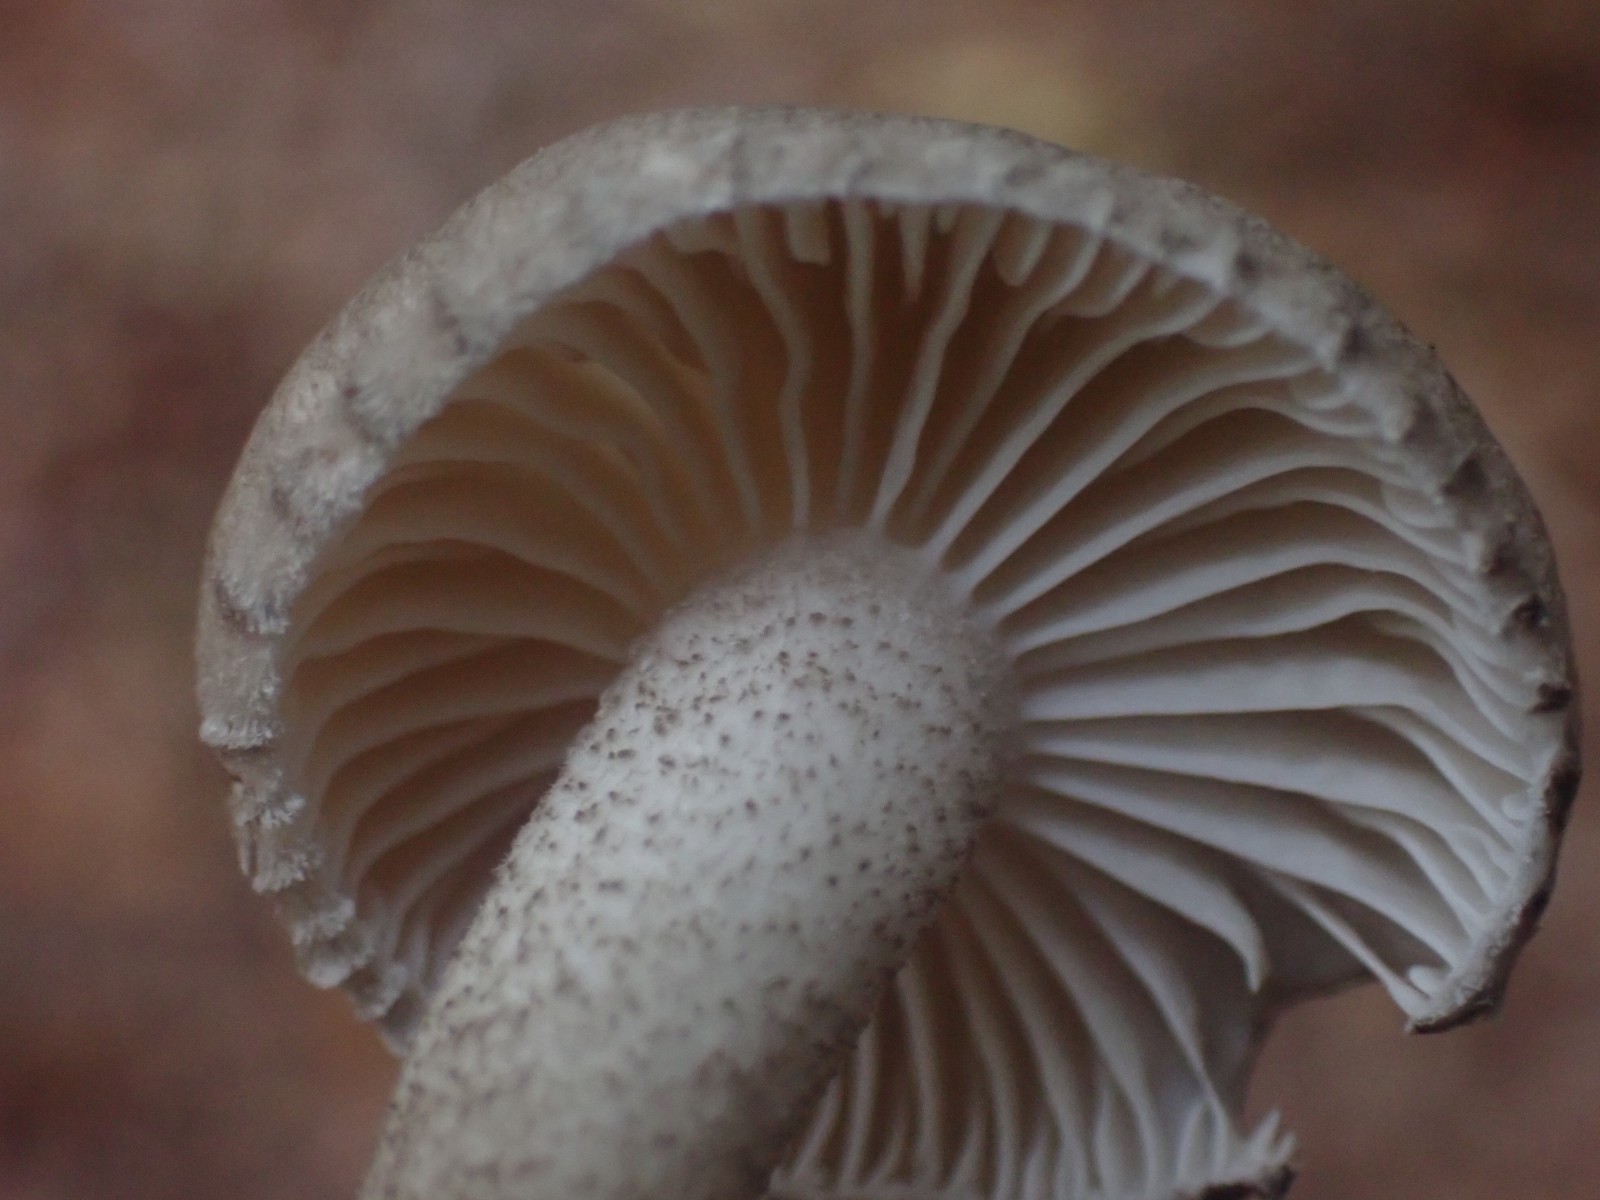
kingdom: Fungi
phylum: Basidiomycota
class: Agaricomycetes
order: Agaricales
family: Hygrophoraceae
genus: Hygrophorus
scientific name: Hygrophorus pustulatus
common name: mørkprikket sneglehat
